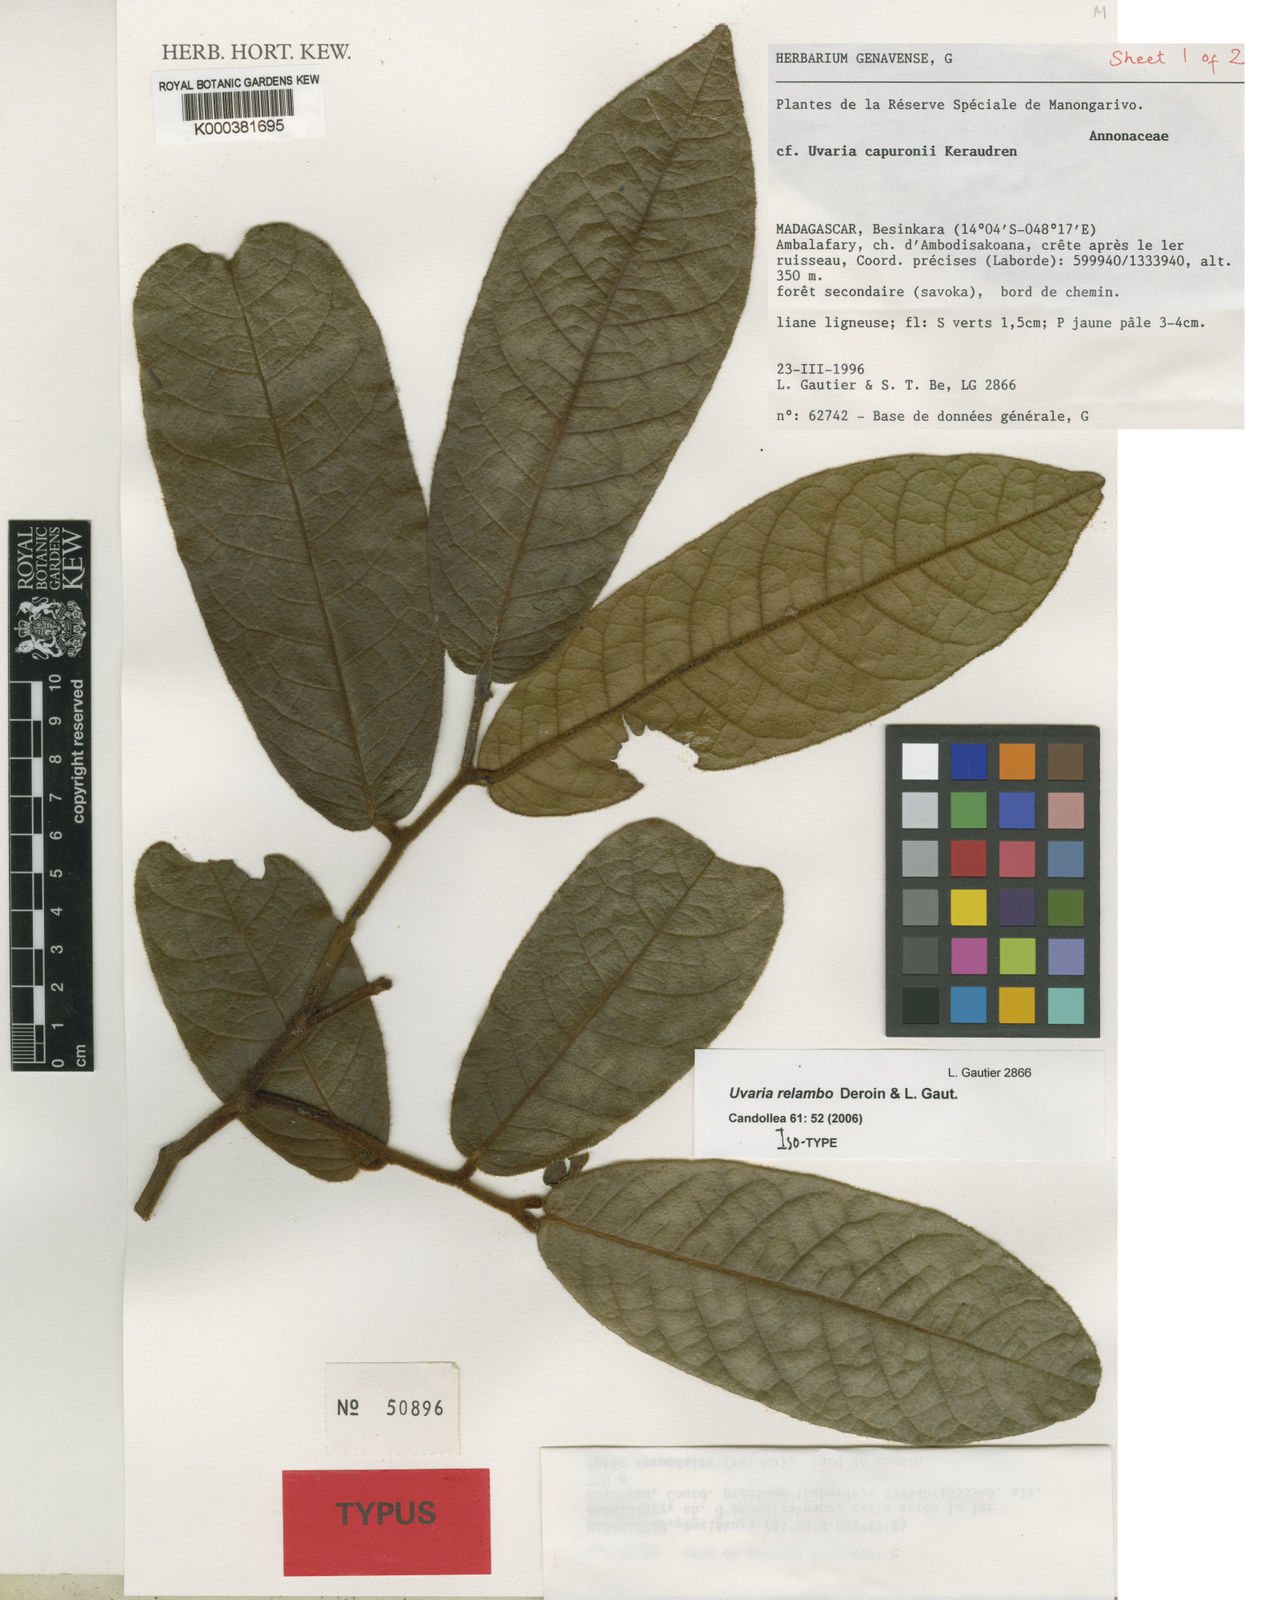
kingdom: Plantae
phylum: Tracheophyta
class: Magnoliopsida
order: Magnoliales
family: Annonaceae
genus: Uvaria
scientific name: Uvaria relambo
